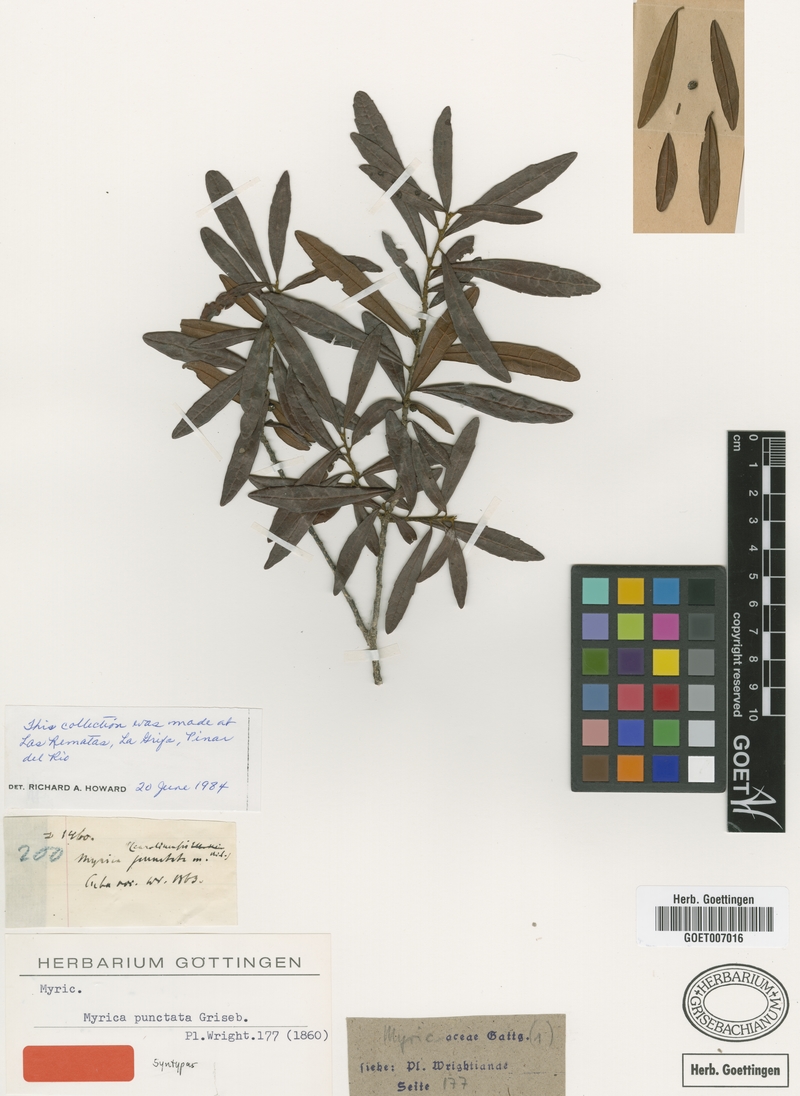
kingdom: Plantae
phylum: Tracheophyta
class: Magnoliopsida
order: Fagales
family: Myricaceae
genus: Morella
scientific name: Morella punctata
